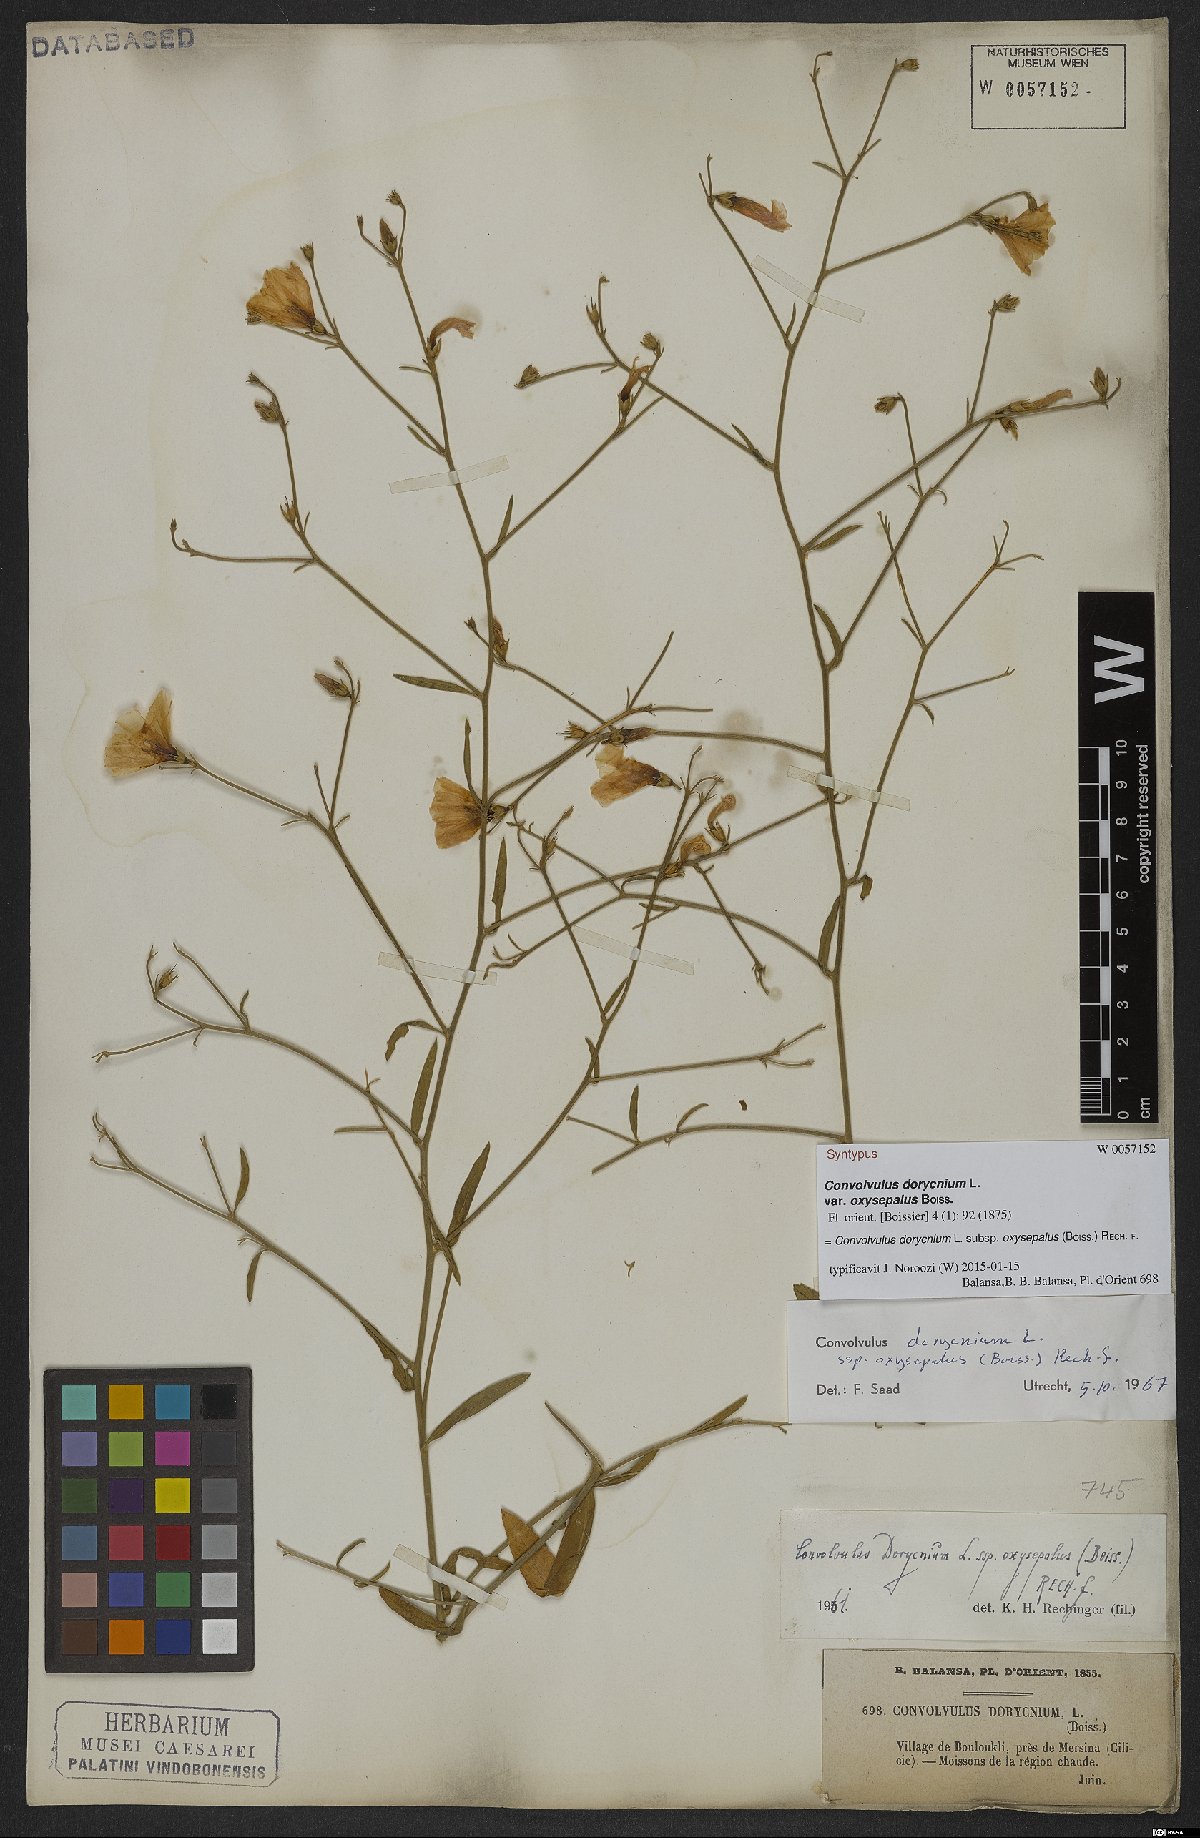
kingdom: Plantae
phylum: Tracheophyta
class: Magnoliopsida
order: Solanales
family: Convolvulaceae
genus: Convolvulus
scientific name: Convolvulus dorycnium
